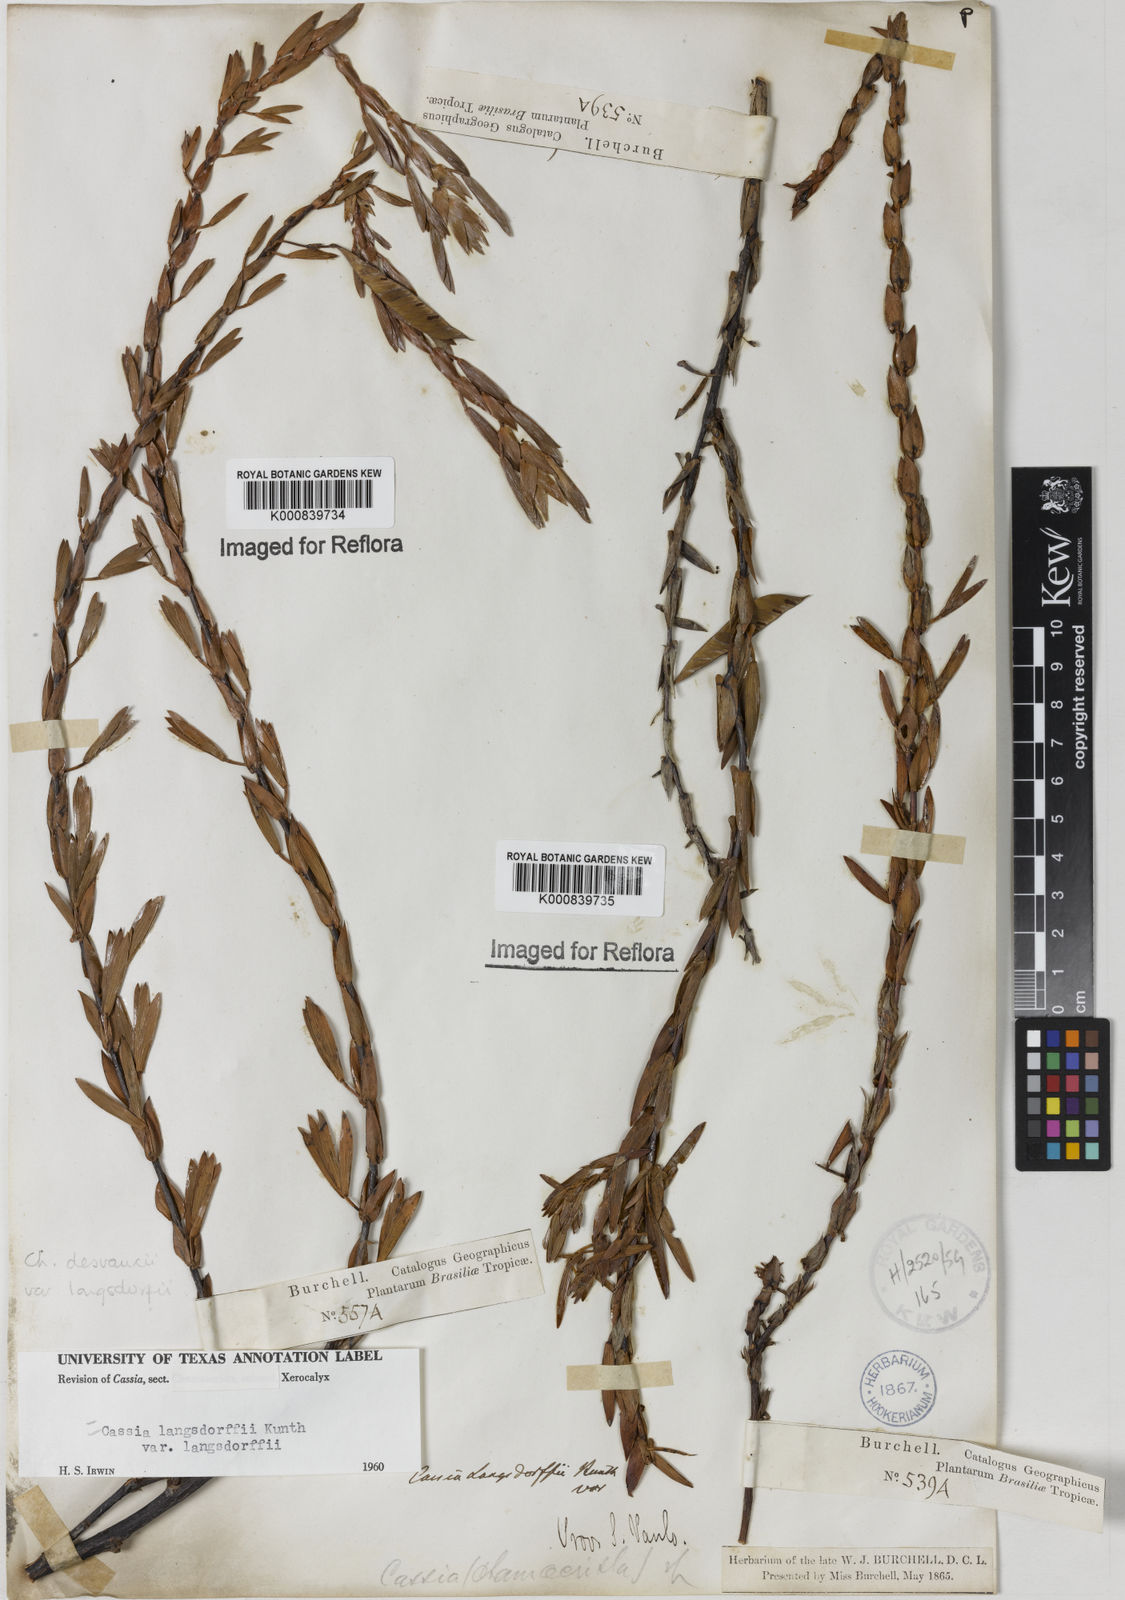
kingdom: Plantae
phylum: Tracheophyta
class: Magnoliopsida
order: Fabales
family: Fabaceae
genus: Chamaecrista
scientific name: Chamaecrista langsdorffii
